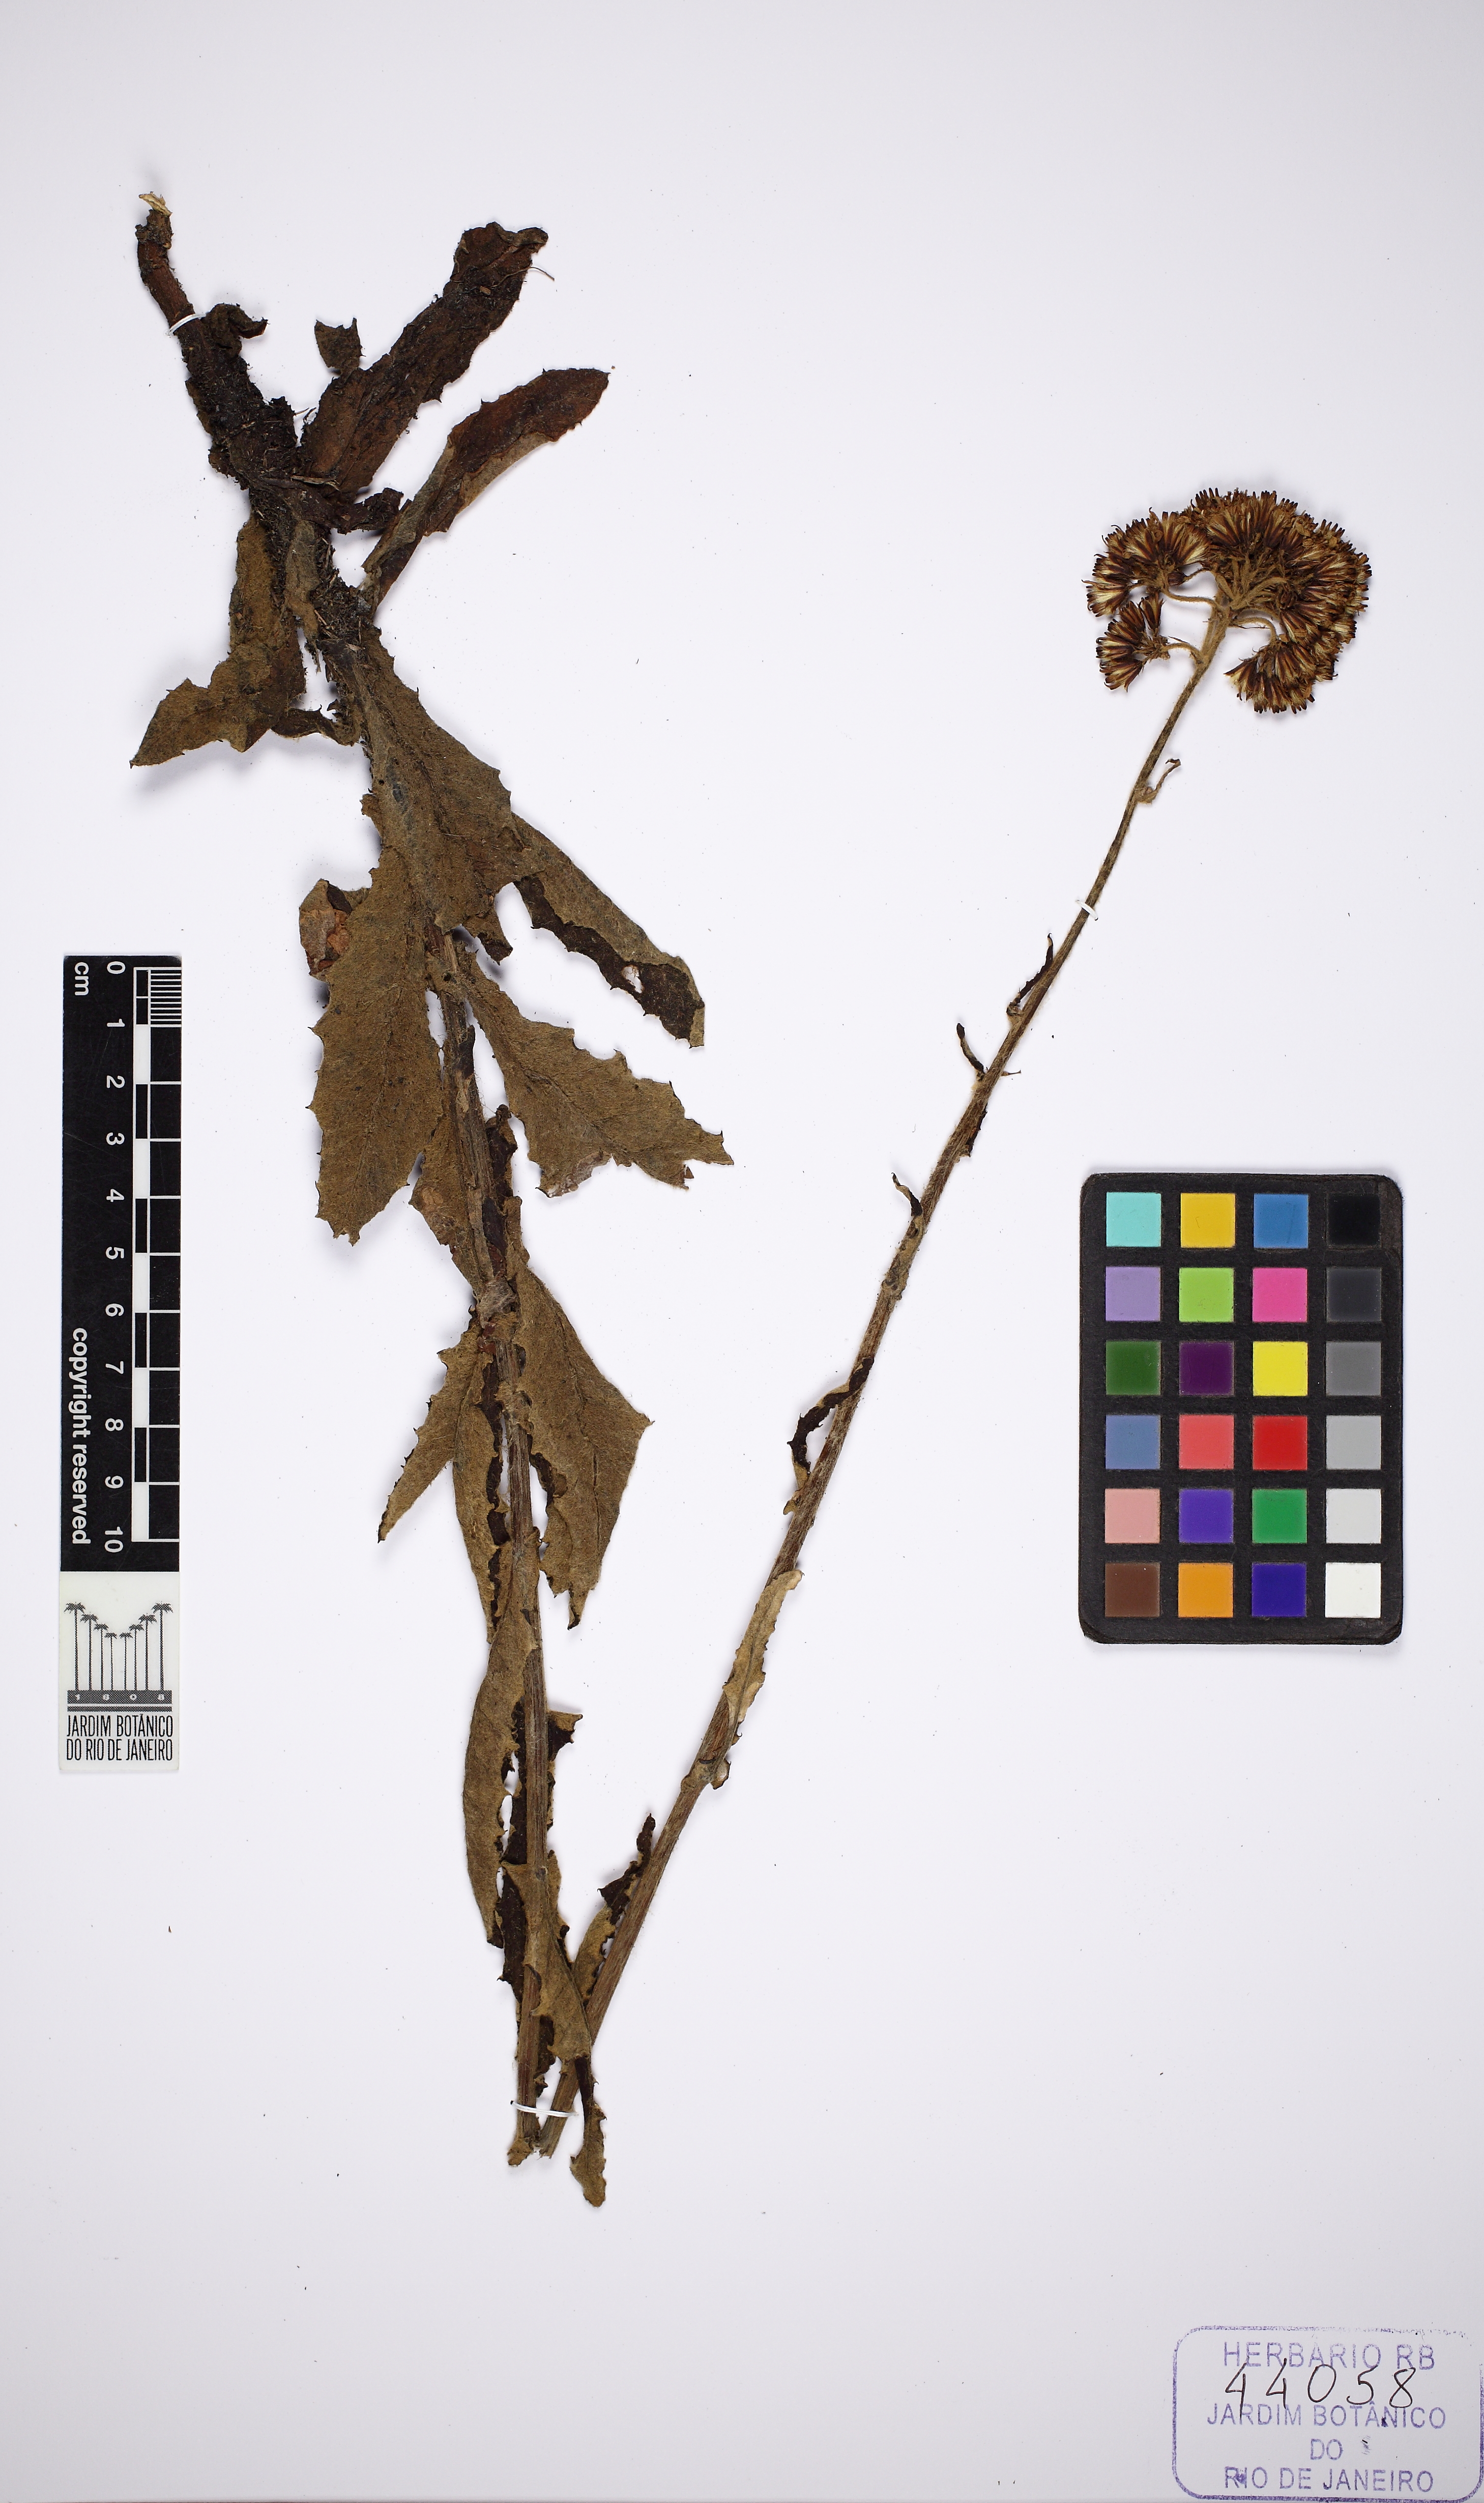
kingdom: Plantae
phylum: Tracheophyta
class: Magnoliopsida
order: Asterales
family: Asteraceae
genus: Senecio
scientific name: Senecio adamantinus
